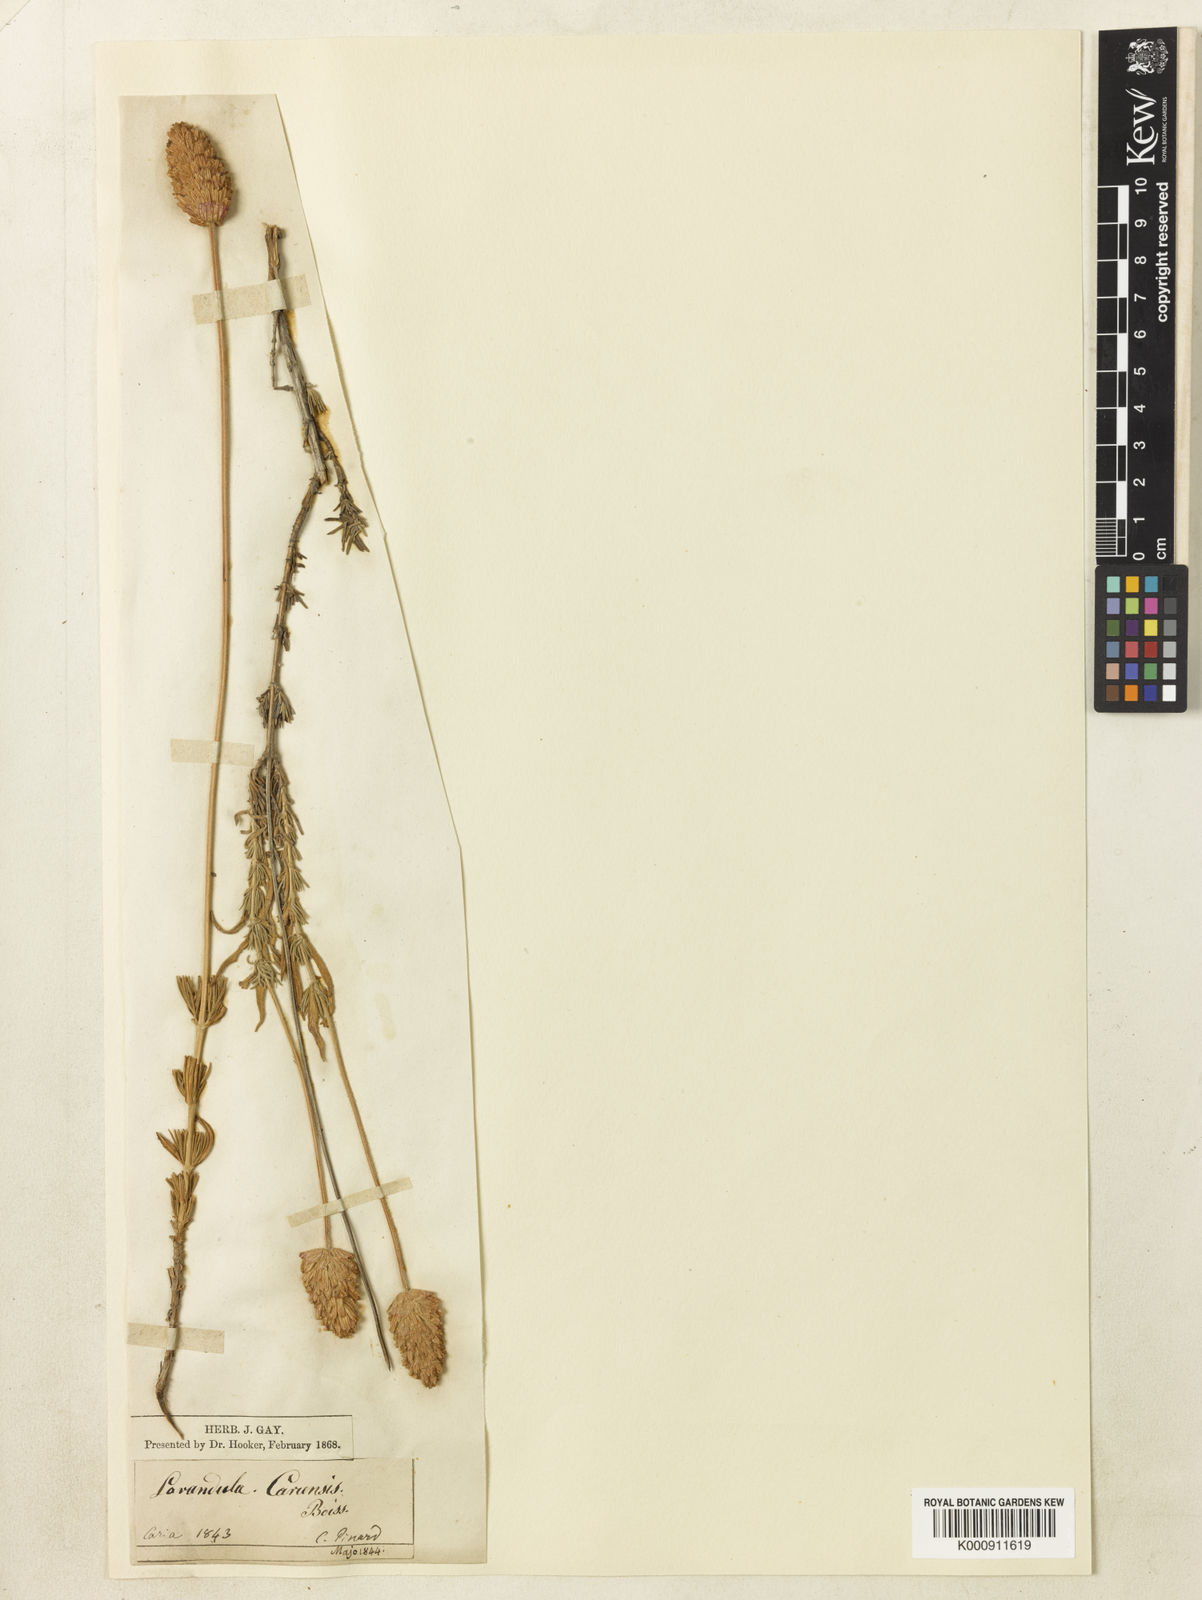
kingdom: Plantae
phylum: Tracheophyta
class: Magnoliopsida
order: Lamiales
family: Lamiaceae
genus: Lavandula
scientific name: Lavandula pedunculata
